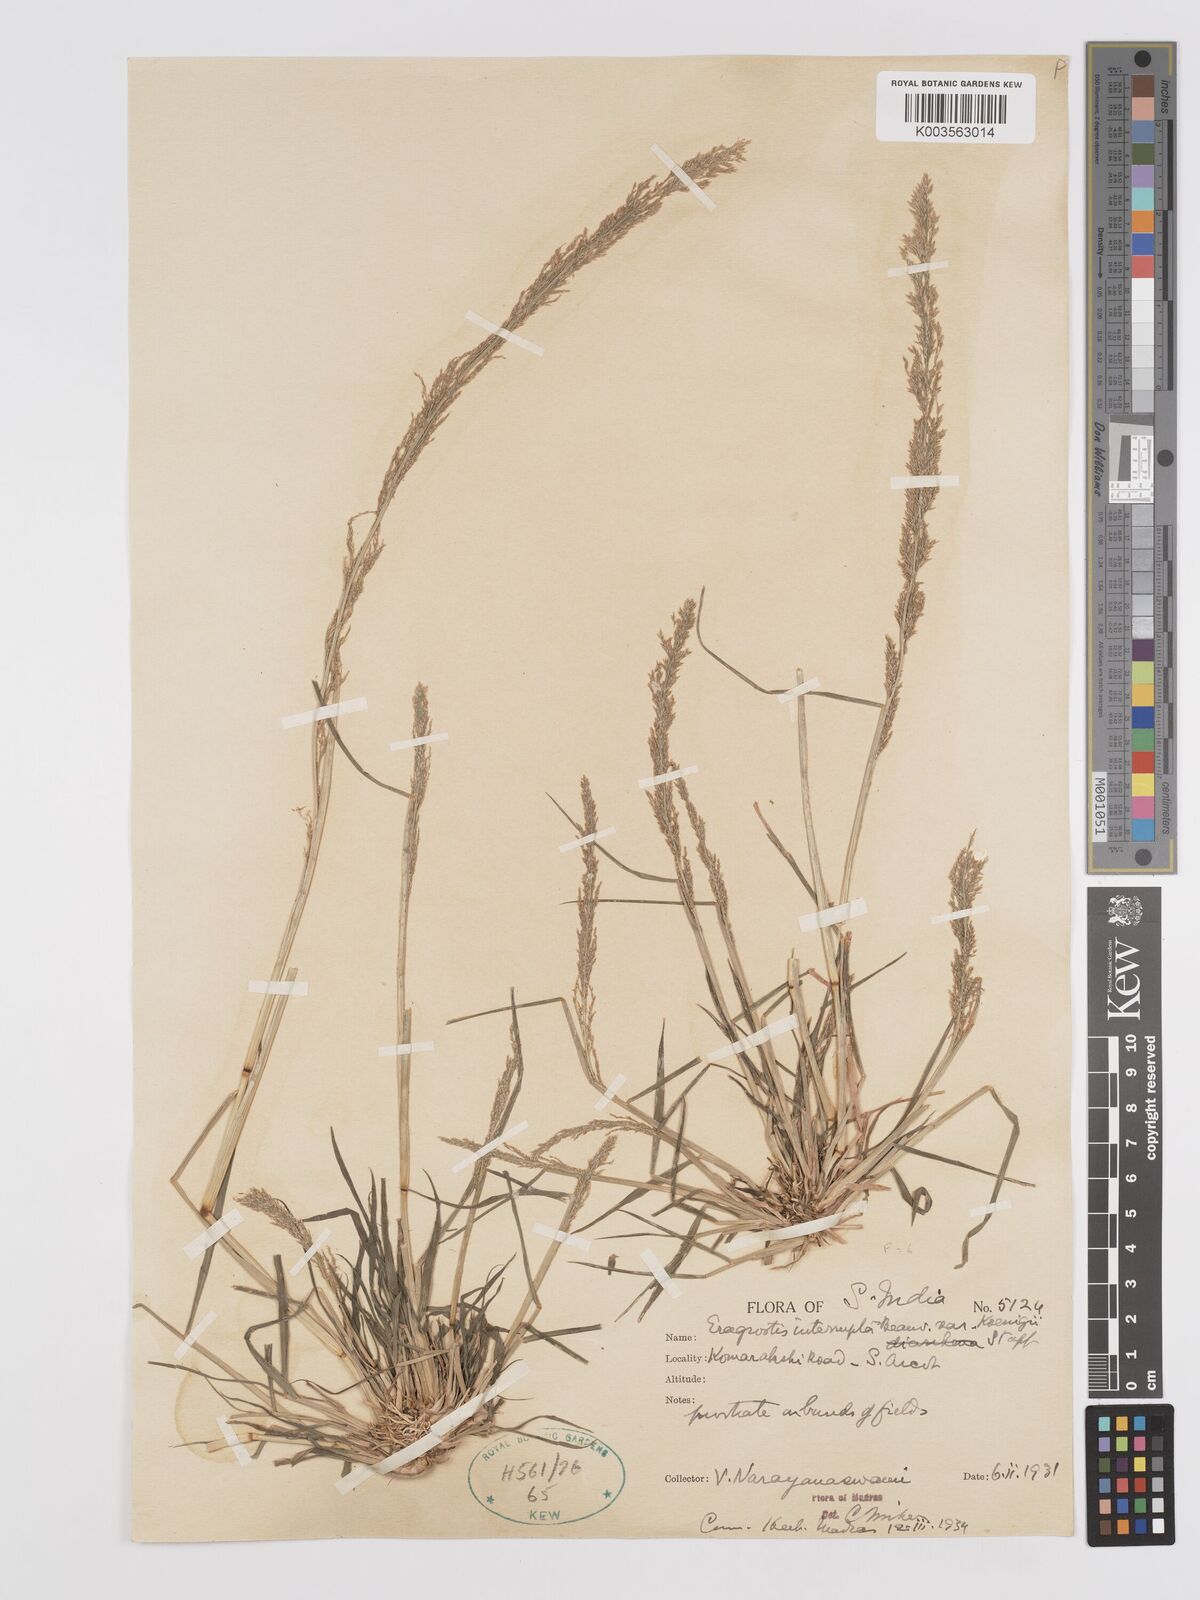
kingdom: Plantae
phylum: Tracheophyta
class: Liliopsida
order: Poales
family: Poaceae
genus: Eragrostis
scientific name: Eragrostis japonica
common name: Pond lovegrass
